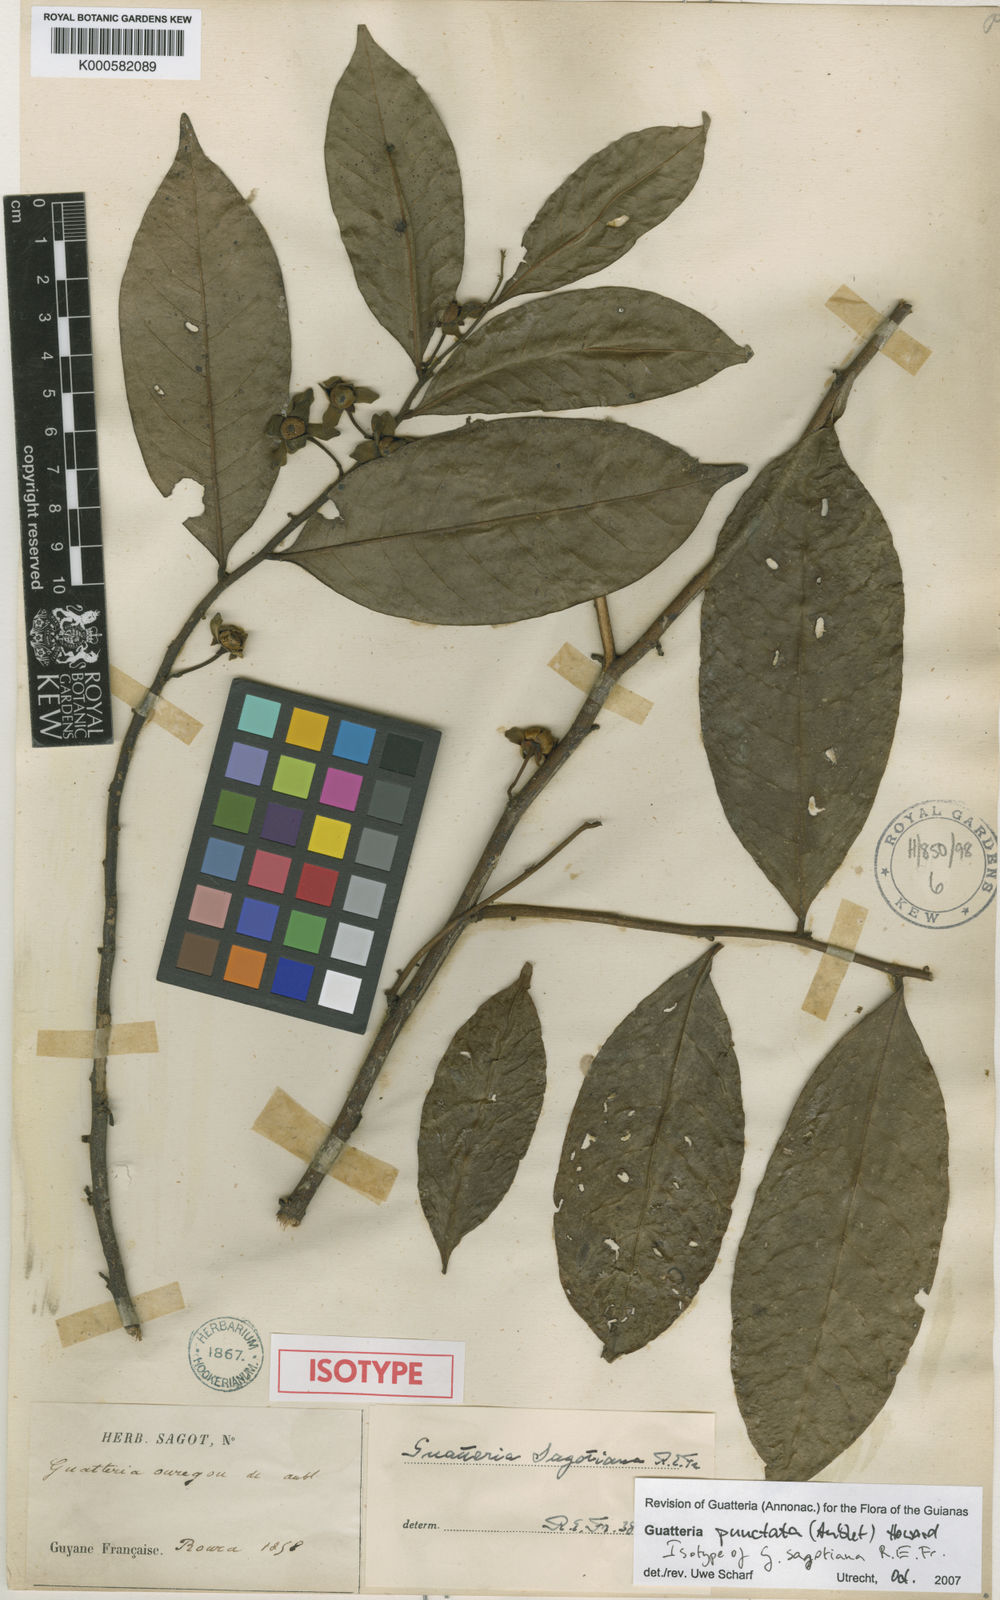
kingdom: Plantae
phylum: Tracheophyta
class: Magnoliopsida
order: Magnoliales
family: Annonaceae
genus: Guatteria
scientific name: Guatteria punctata
